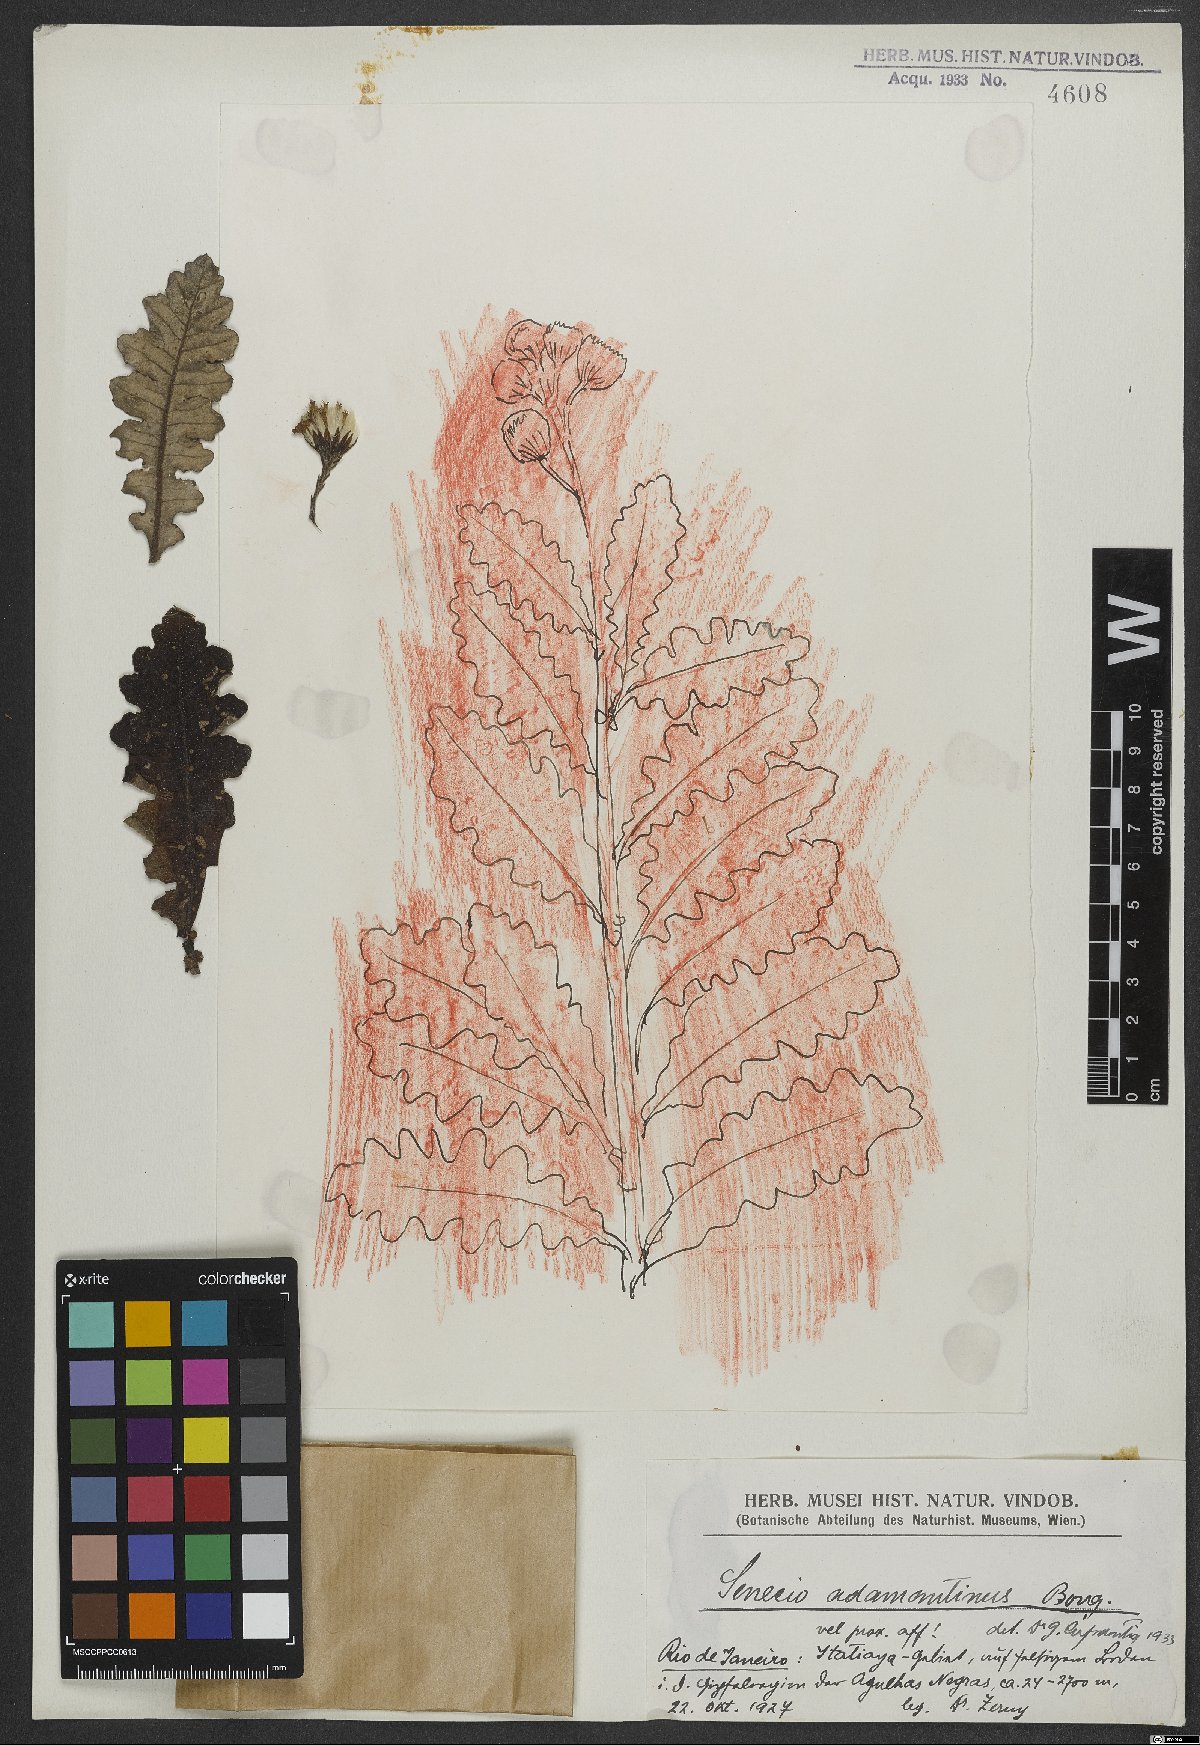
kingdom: Plantae
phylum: Tracheophyta
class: Magnoliopsida
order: Asterales
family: Asteraceae
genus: Senecio
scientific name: Senecio adamantinus
